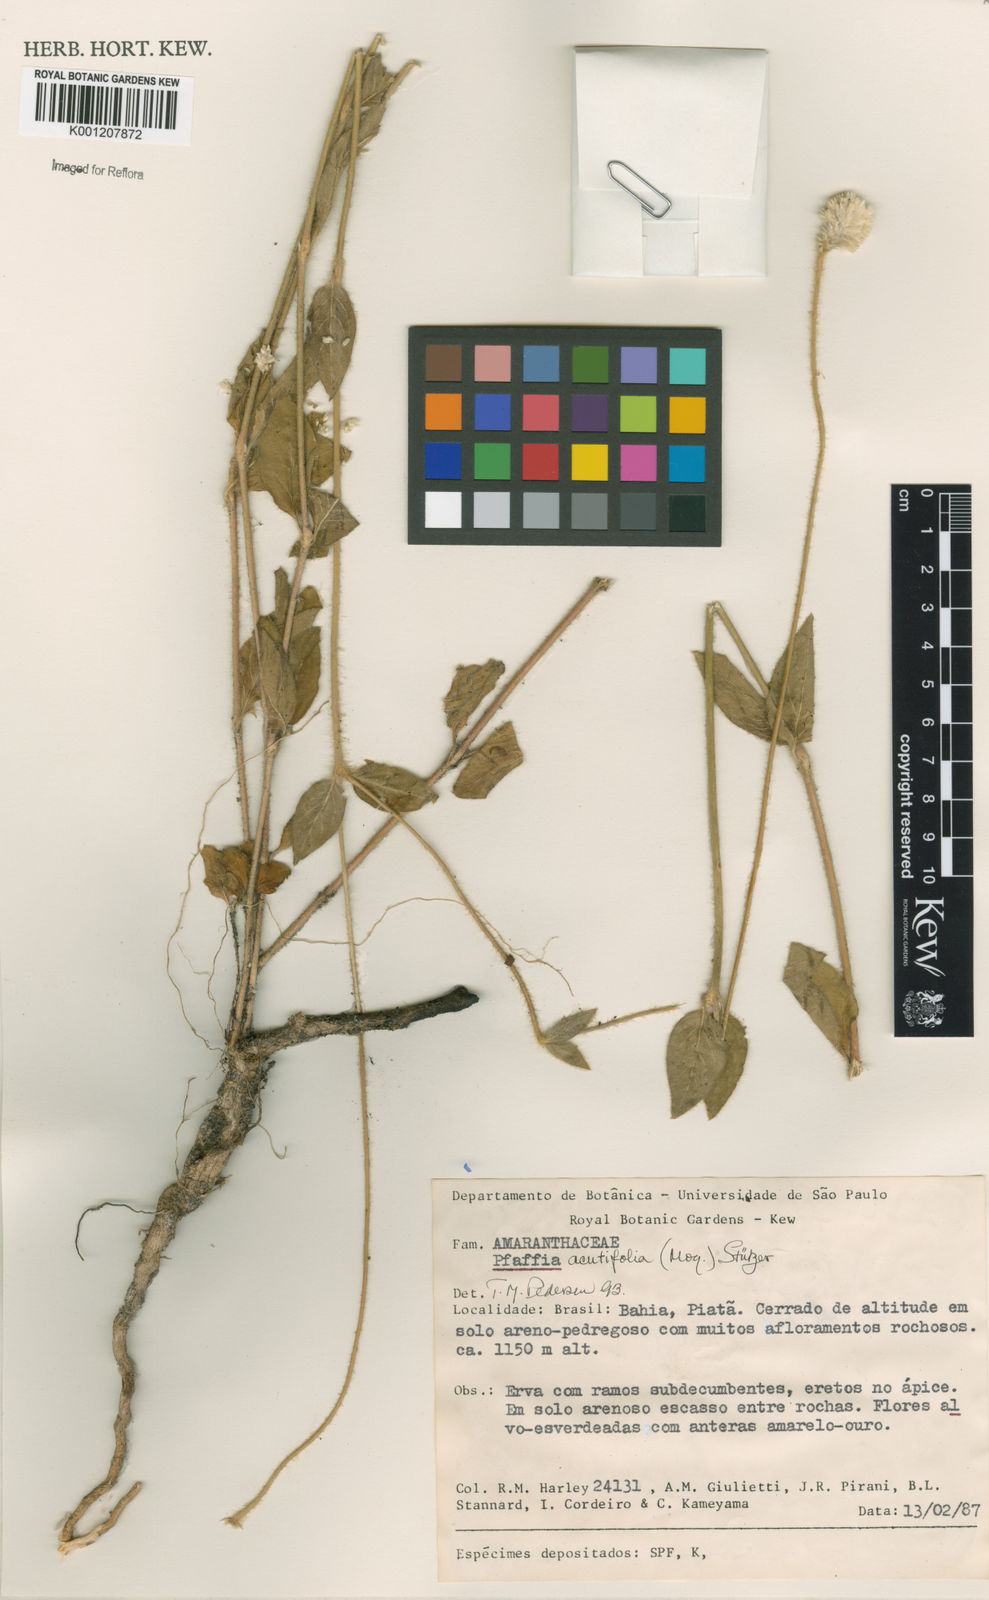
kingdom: Plantae
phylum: Tracheophyta
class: Magnoliopsida
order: Caryophyllales
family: Amaranthaceae
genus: Pfaffia
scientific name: Pfaffia
